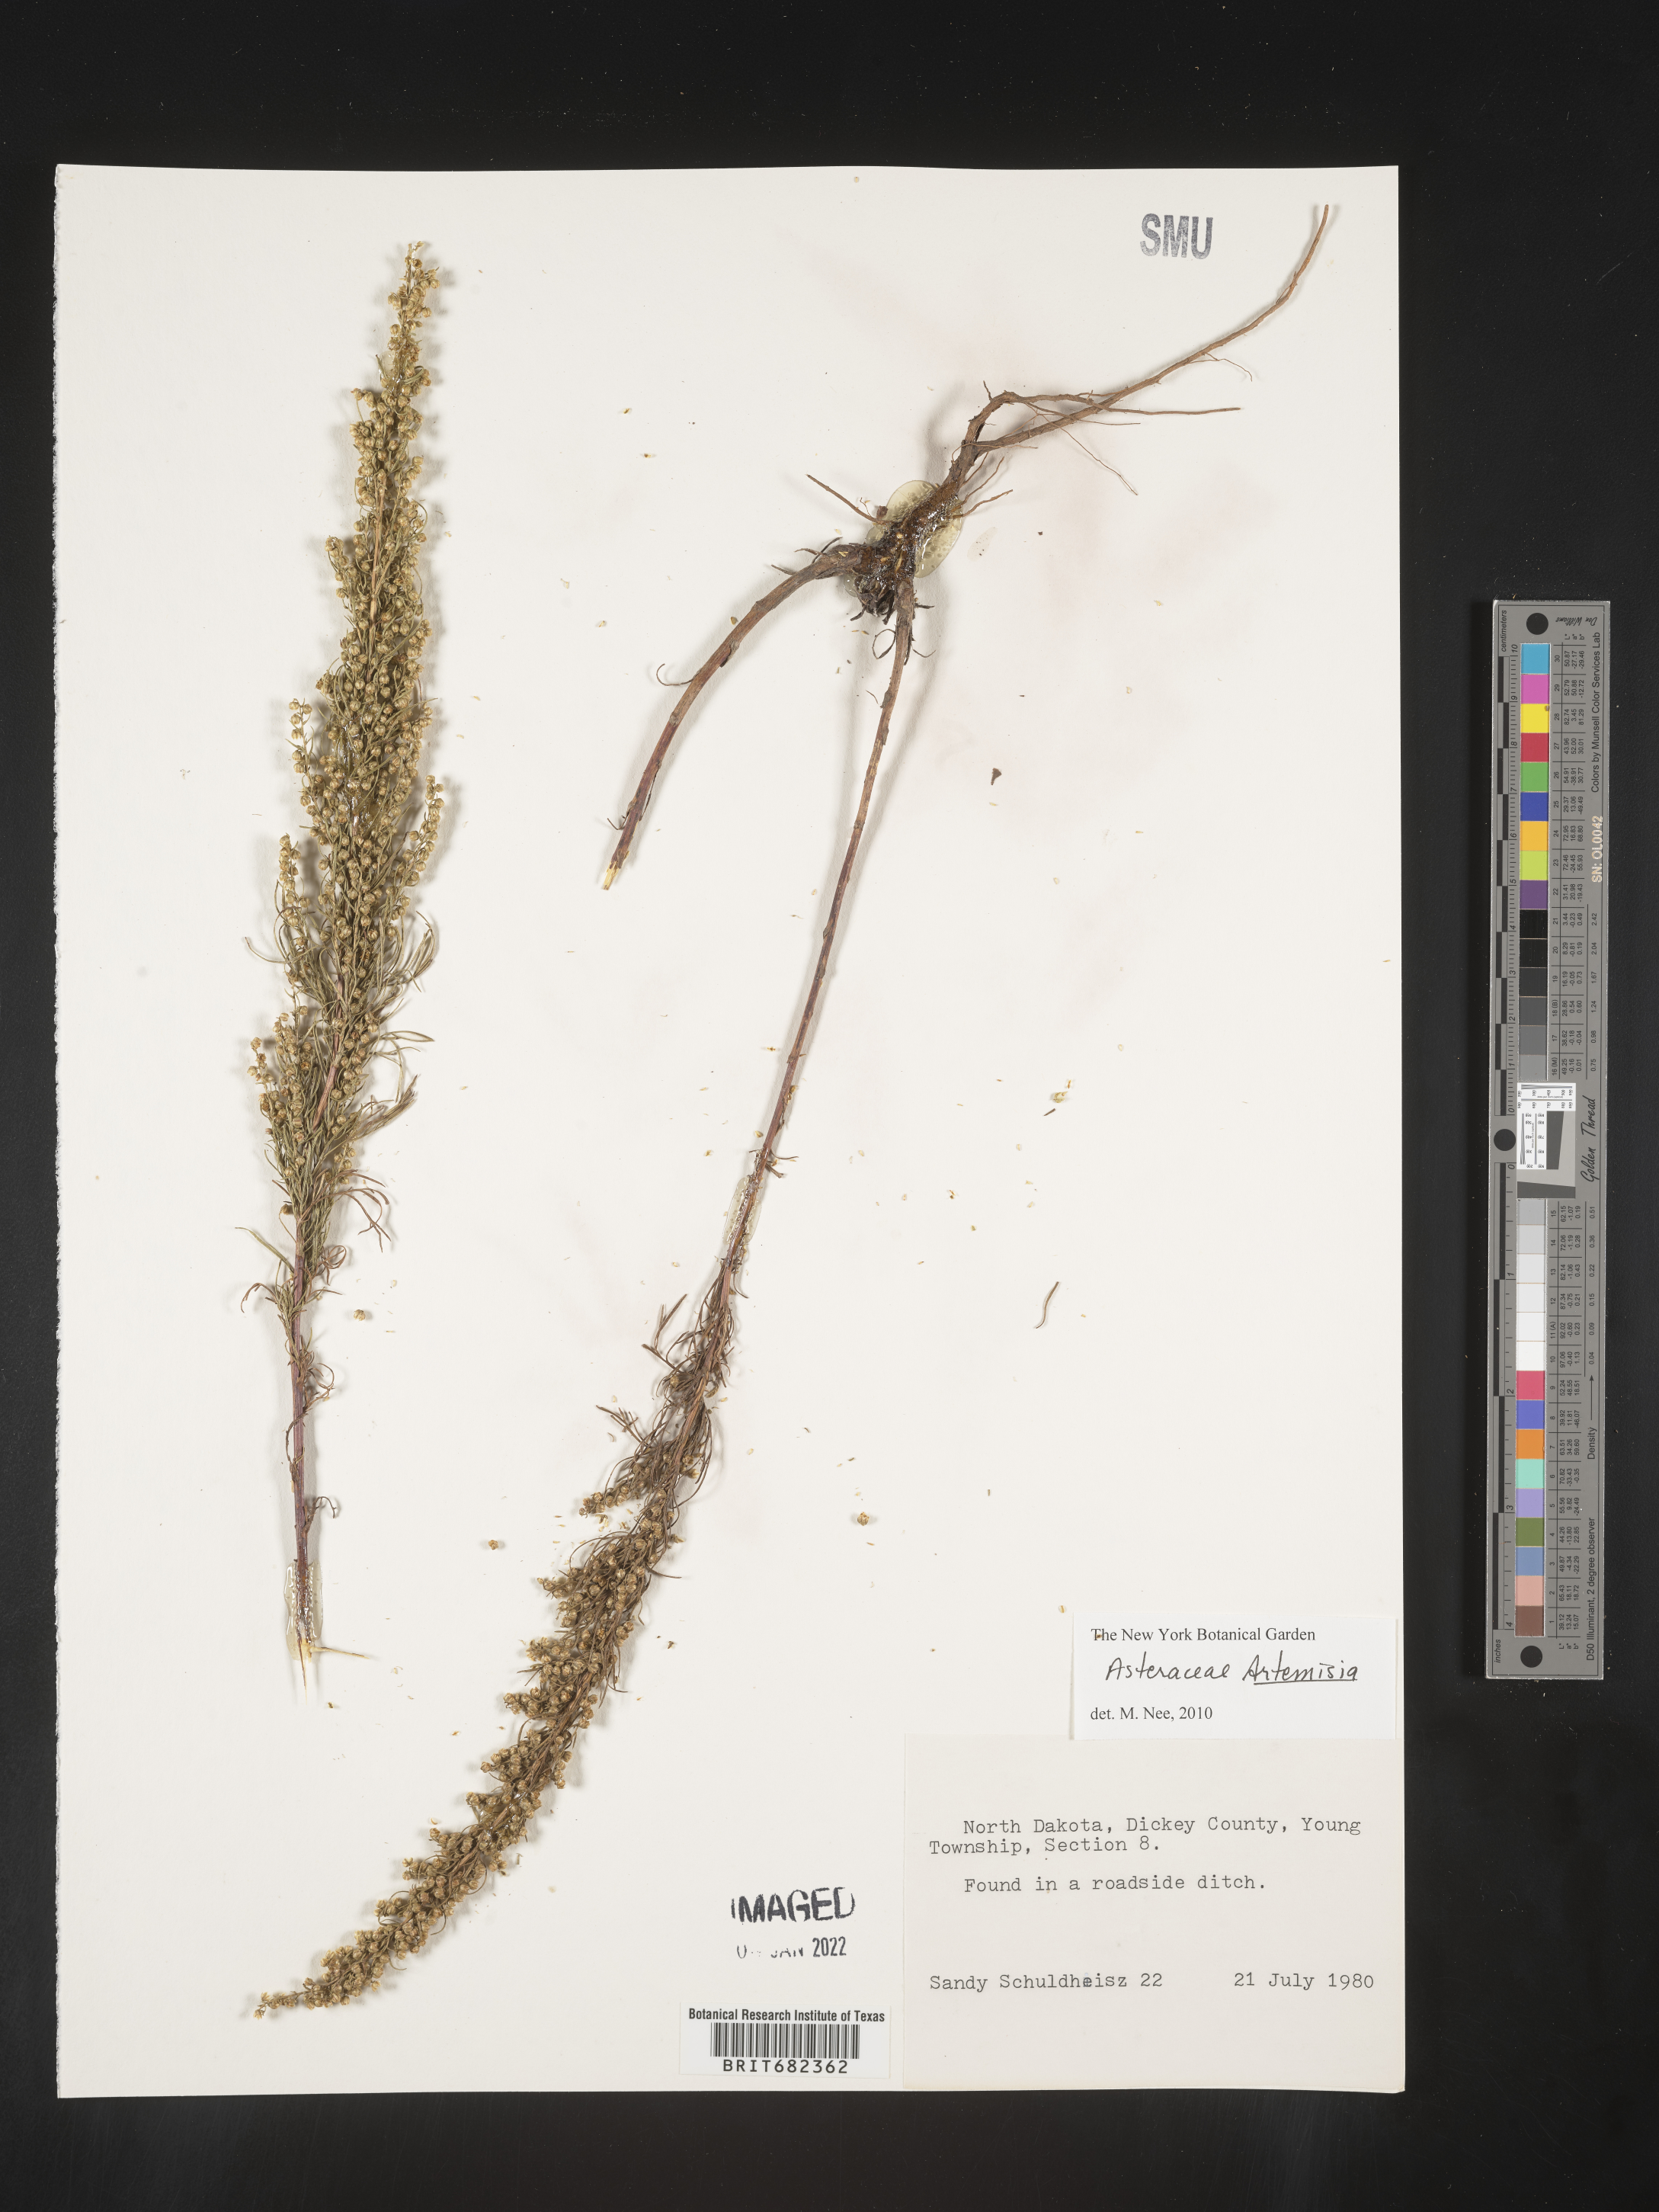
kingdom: Plantae
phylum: Tracheophyta
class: Magnoliopsida
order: Asterales
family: Asteraceae
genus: Artemisia
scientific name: Artemisia
